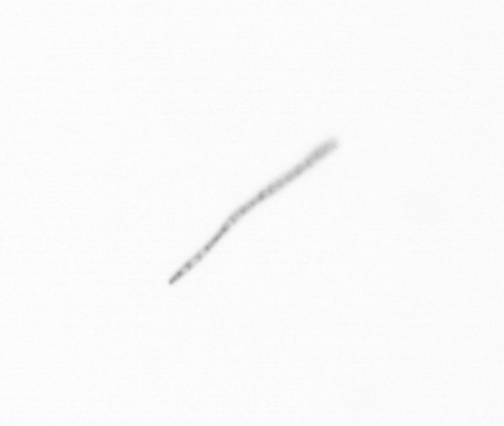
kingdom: Chromista
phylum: Ochrophyta
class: Bacillariophyceae
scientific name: Bacillariophyceae
